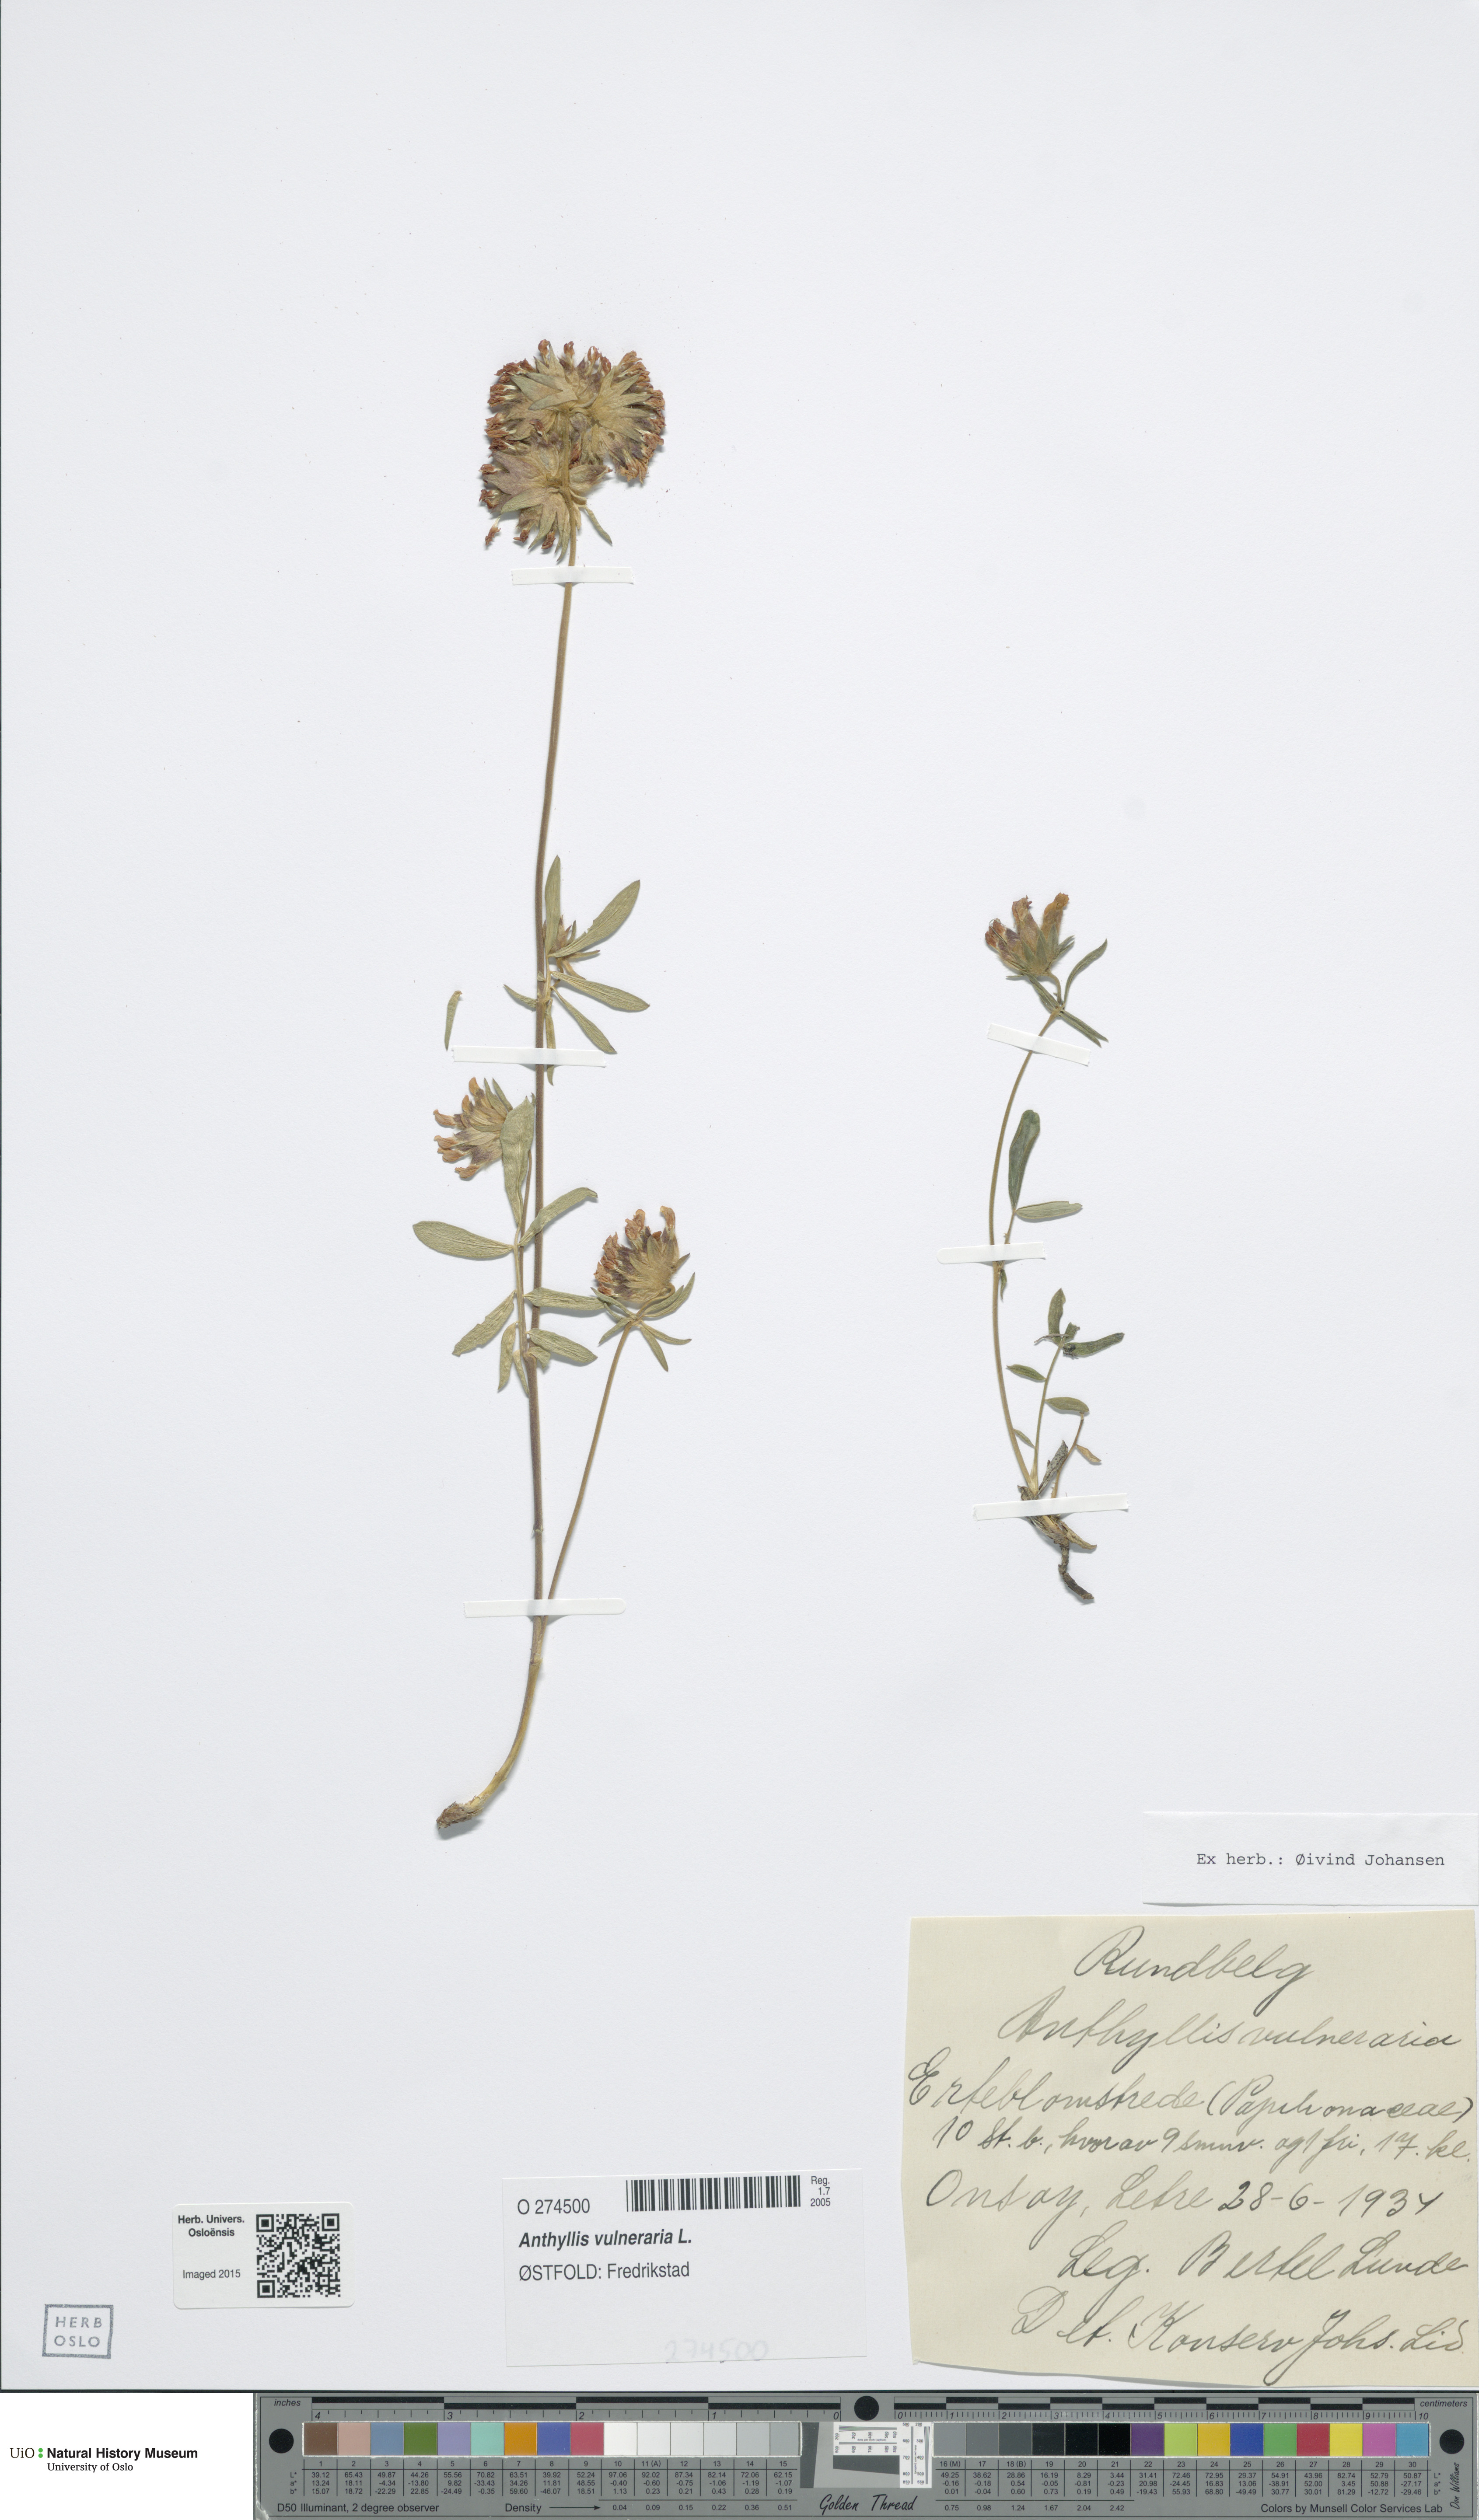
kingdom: Plantae
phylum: Tracheophyta
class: Magnoliopsida
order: Fabales
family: Fabaceae
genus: Anthyllis
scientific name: Anthyllis vulneraria
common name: Kidney vetch
